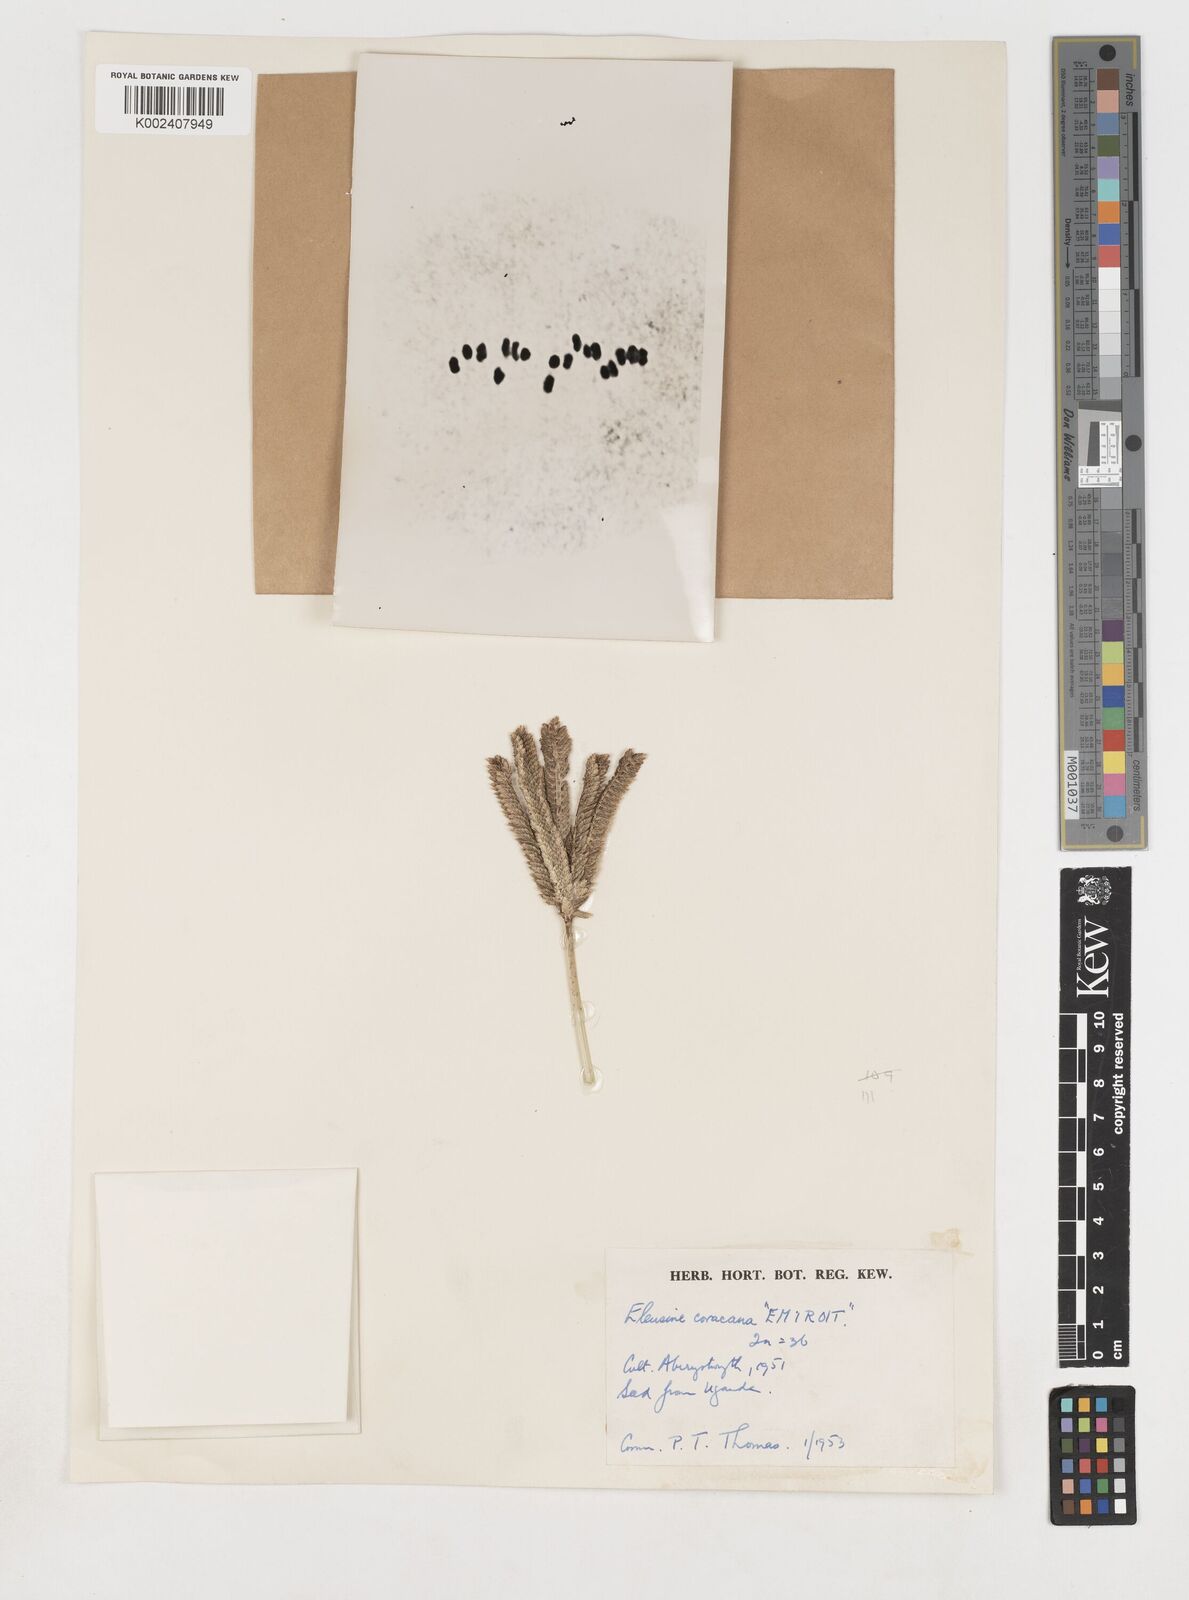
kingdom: Plantae
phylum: Tracheophyta
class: Liliopsida
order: Poales
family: Poaceae
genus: Eleusine
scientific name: Eleusine coracana
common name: Finger millet
